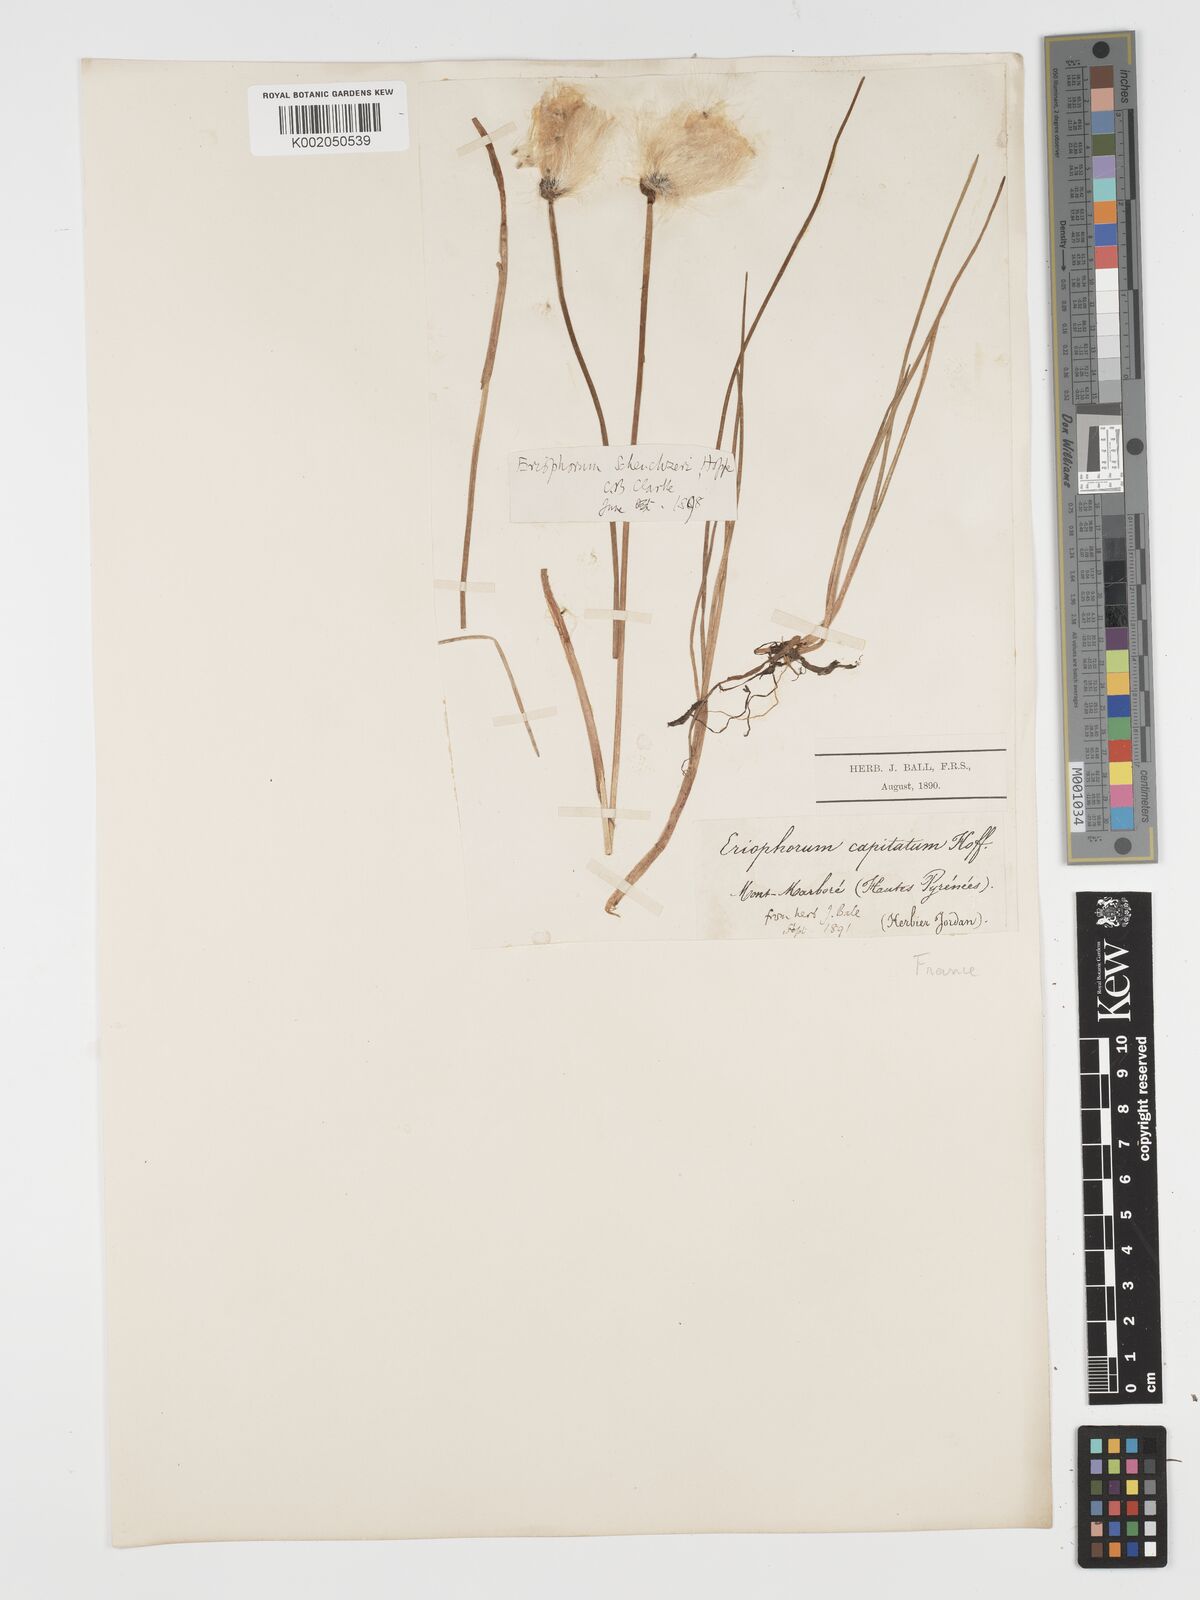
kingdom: Plantae
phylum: Tracheophyta
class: Liliopsida
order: Poales
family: Cyperaceae
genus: Eriophorum
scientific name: Eriophorum scheuchzeri
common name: Scheuchzer's cottongrass
